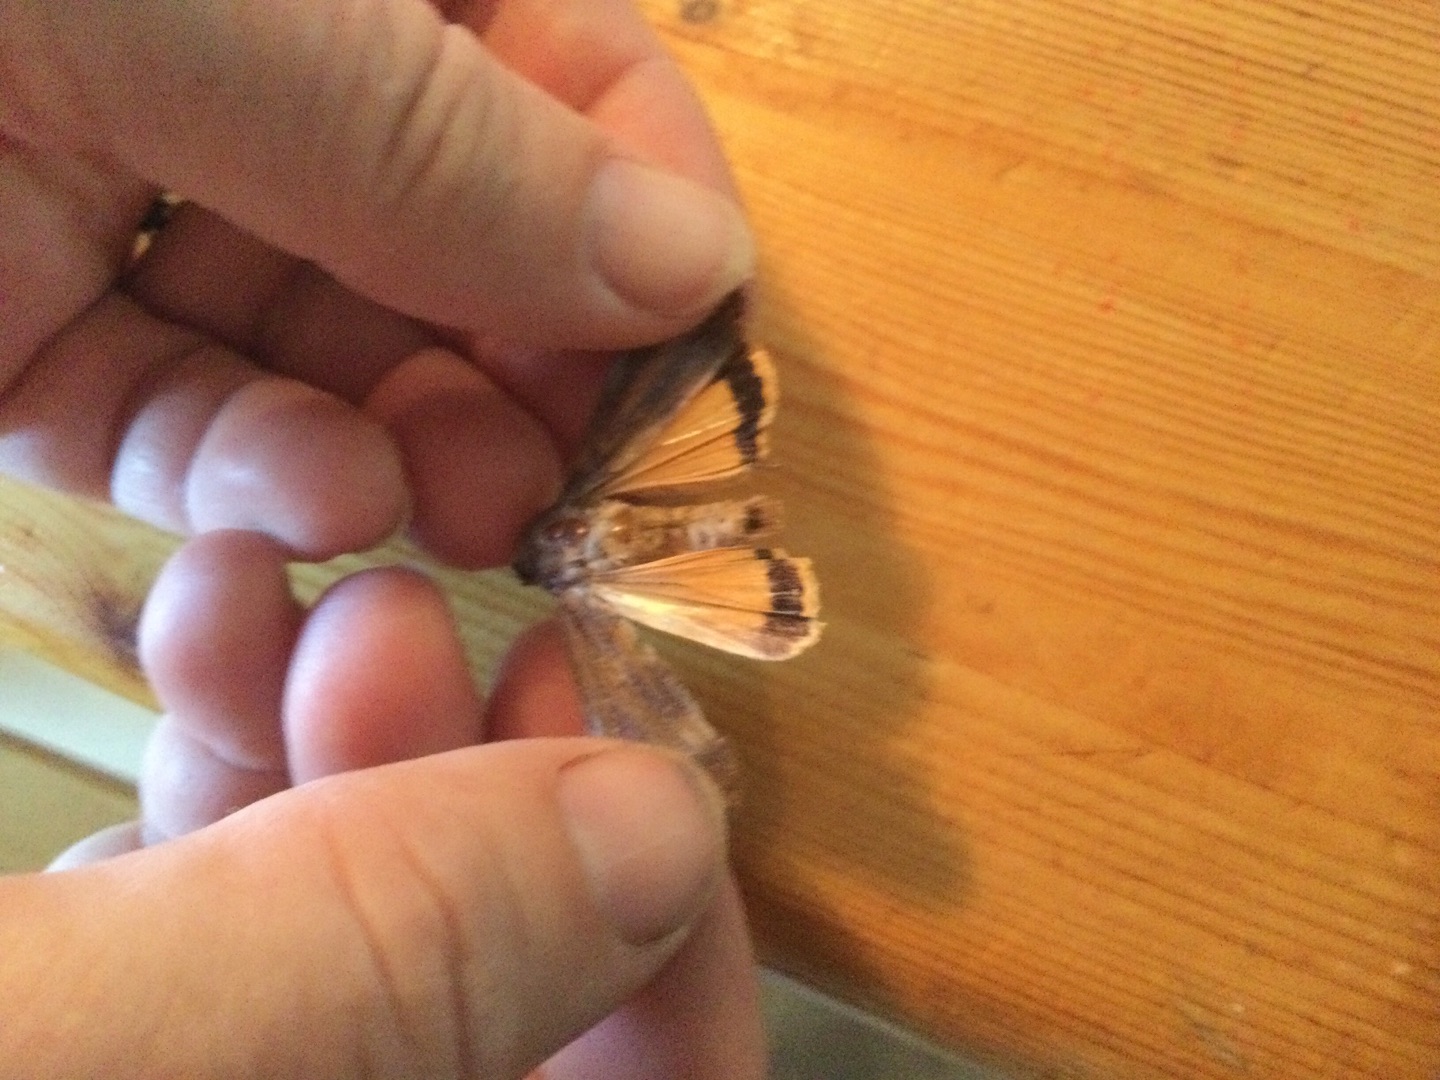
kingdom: Animalia
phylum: Arthropoda
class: Insecta
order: Lepidoptera
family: Noctuidae
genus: Noctua
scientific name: Noctua pronuba
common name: Stor smutugle
